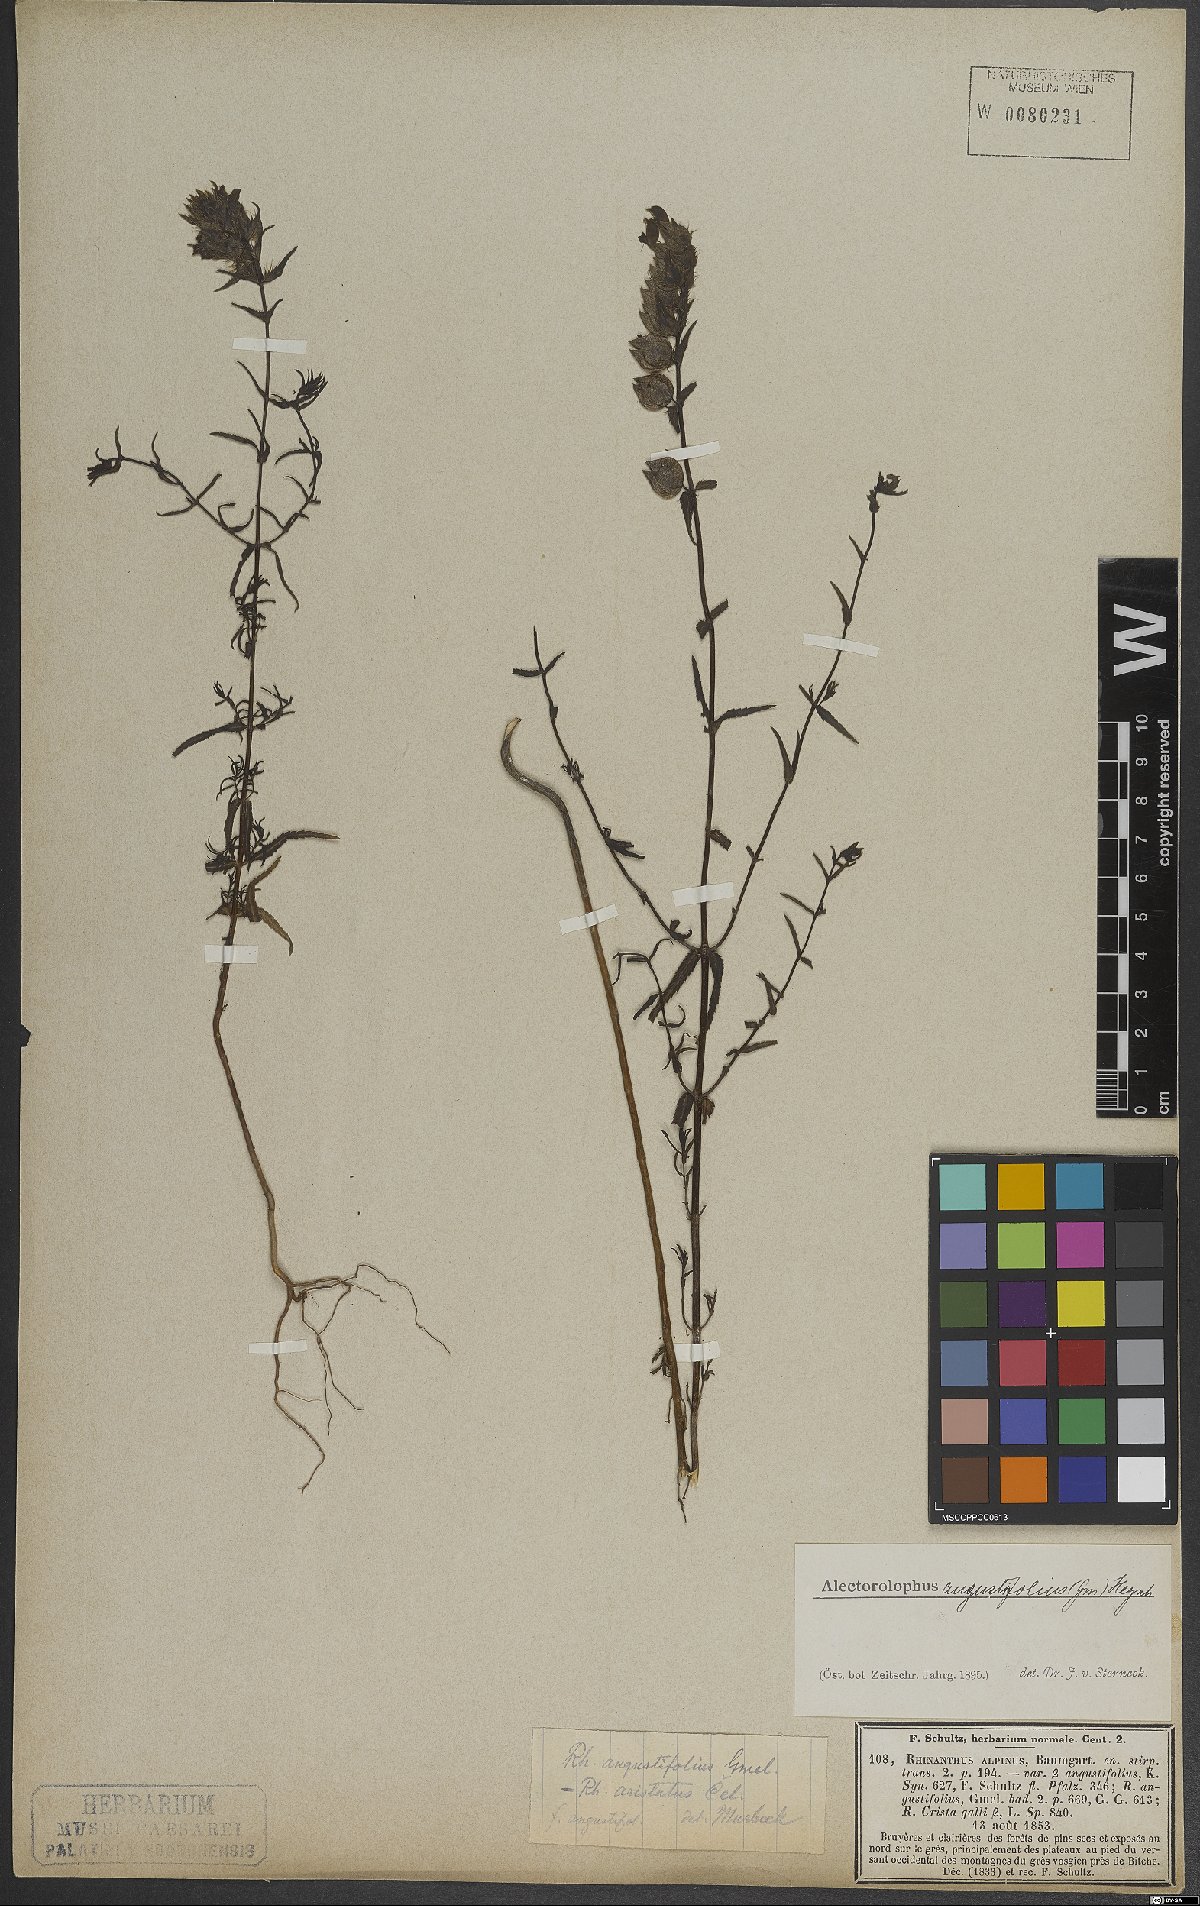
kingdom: Plantae
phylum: Tracheophyta
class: Magnoliopsida
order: Lamiales
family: Orobanchaceae
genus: Rhinanthus
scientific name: Rhinanthus glacialis
